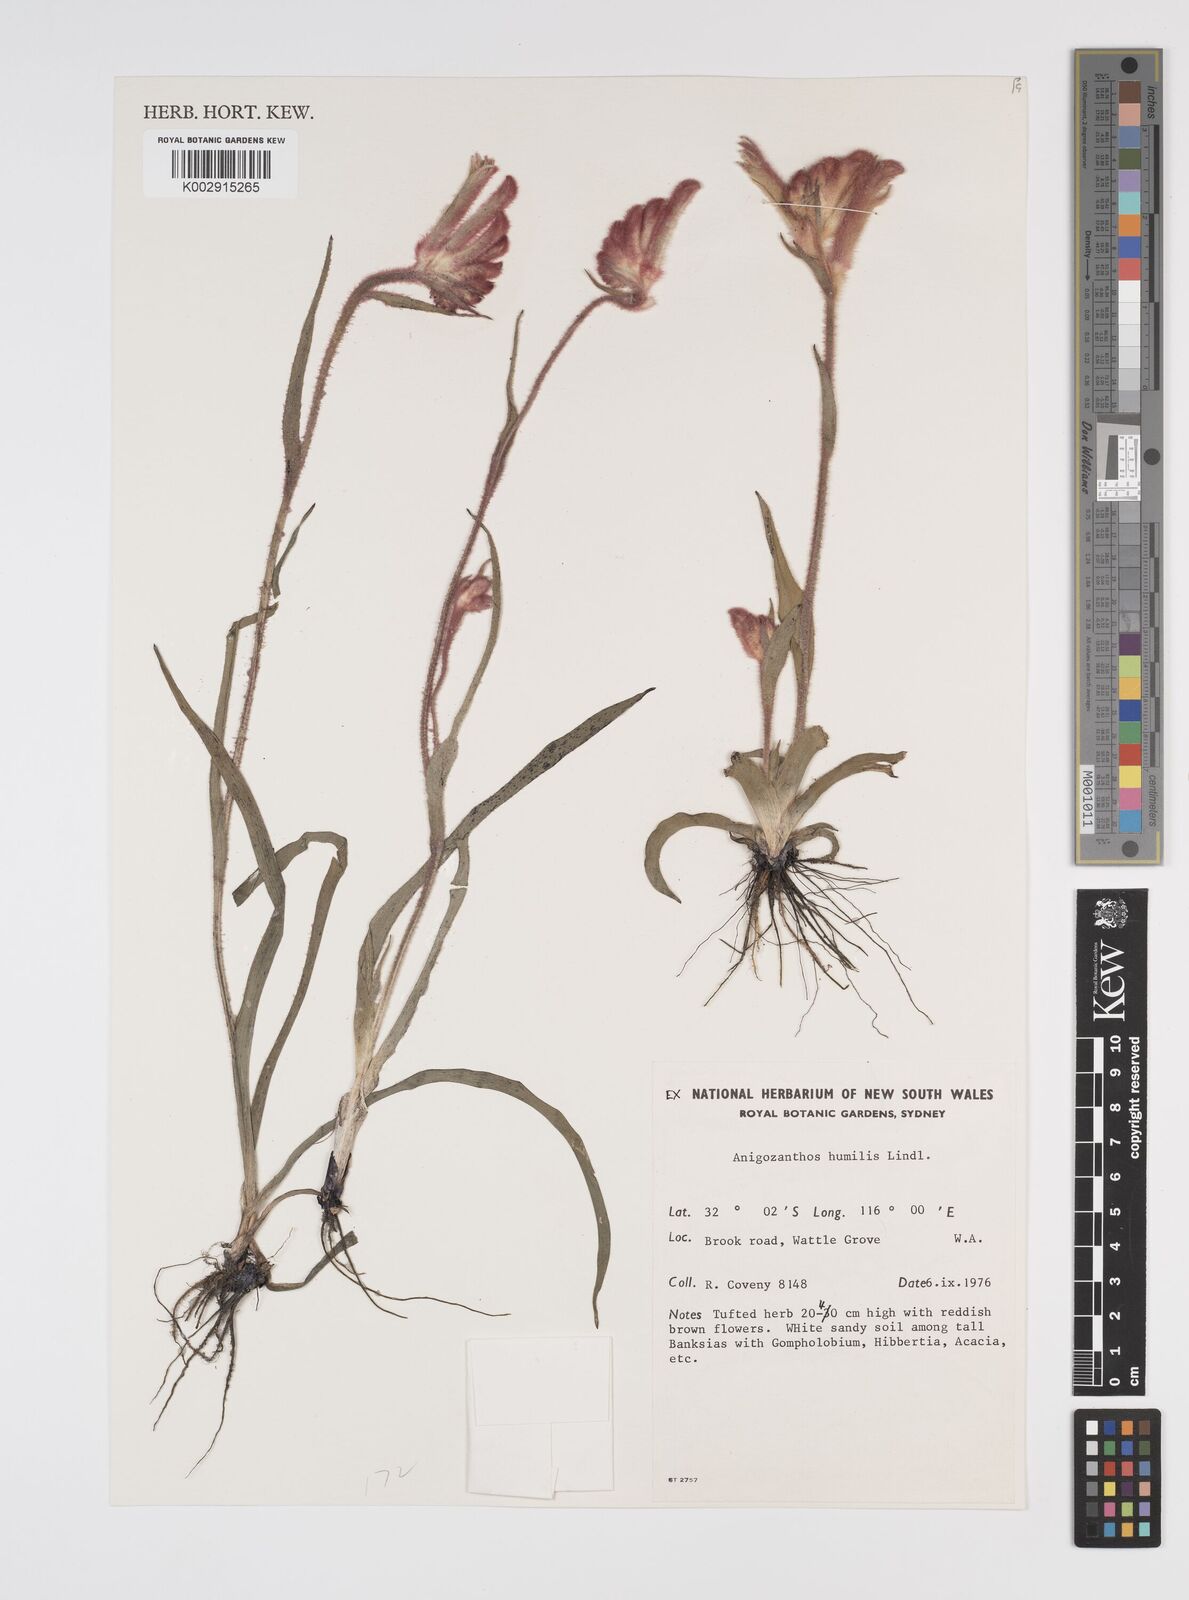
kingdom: Plantae
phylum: Tracheophyta
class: Liliopsida
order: Commelinales
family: Haemodoraceae
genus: Anigozanthos
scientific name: Anigozanthos humilis
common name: Cat's-paw
